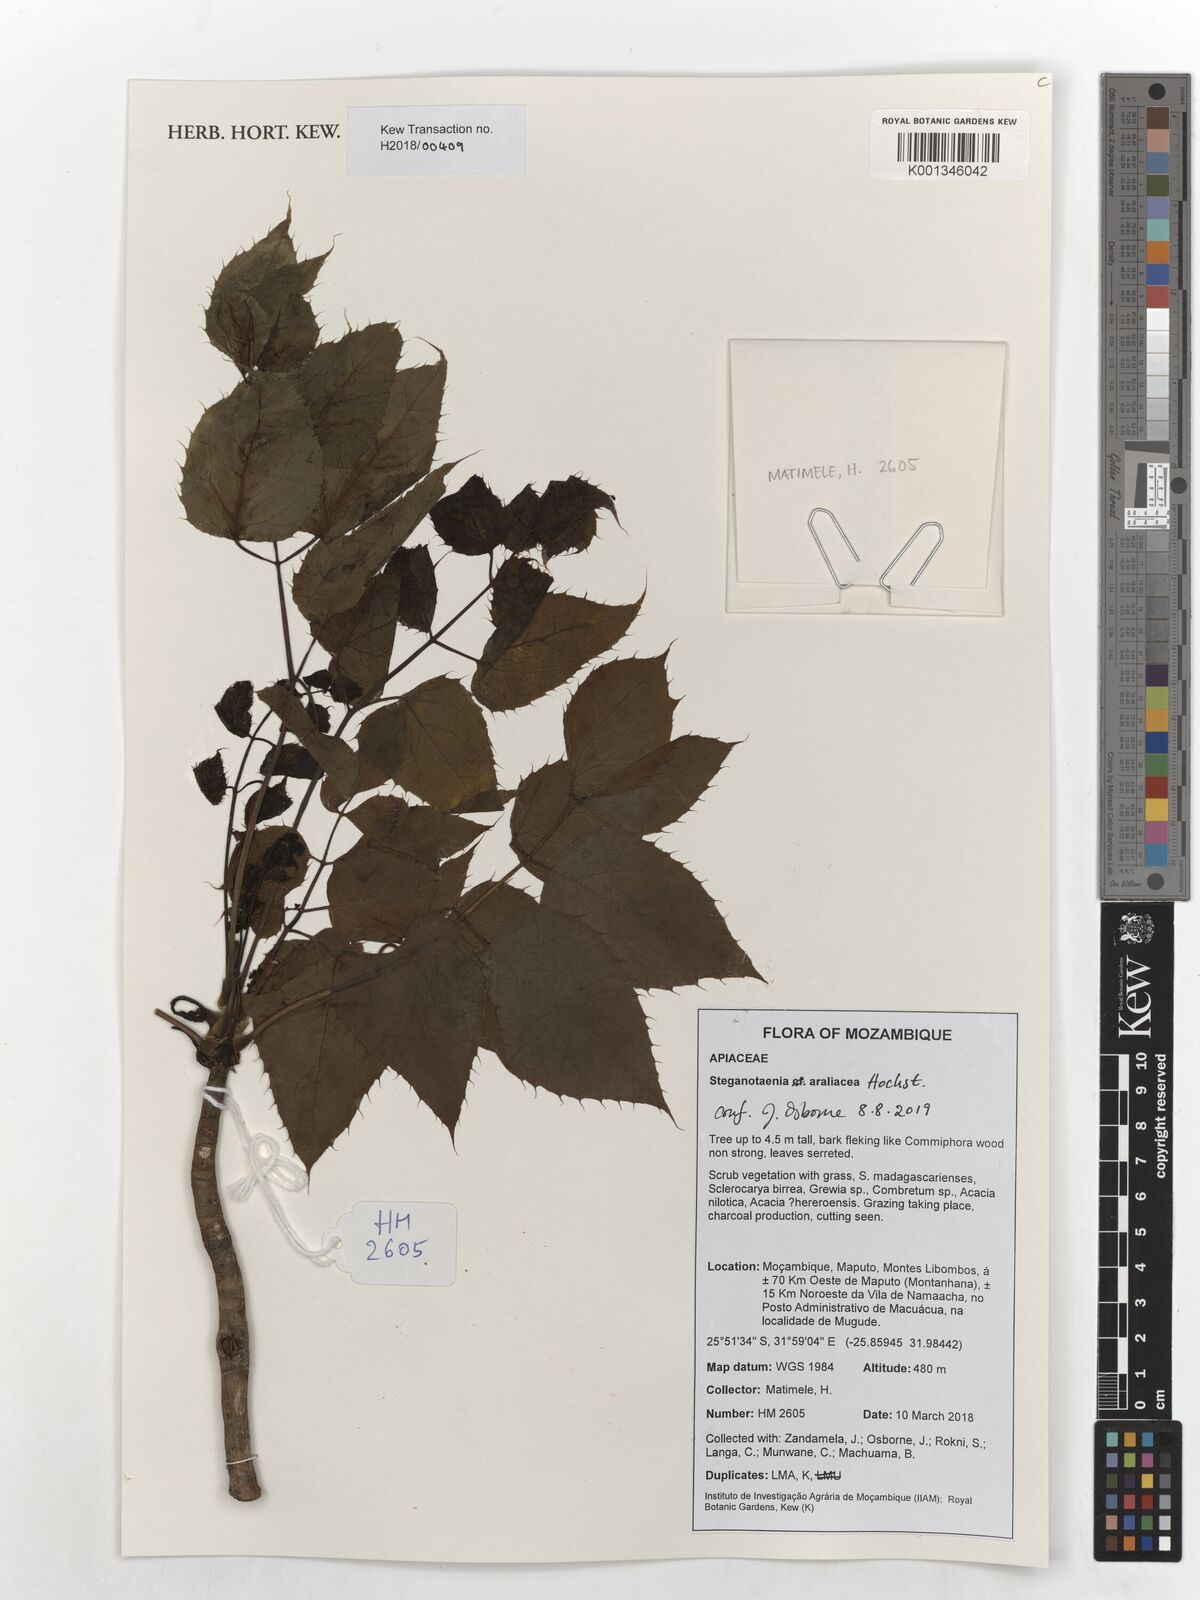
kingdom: Plantae
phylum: Tracheophyta
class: Magnoliopsida
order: Apiales
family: Apiaceae
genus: Steganotaenia
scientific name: Steganotaenia araliacea
